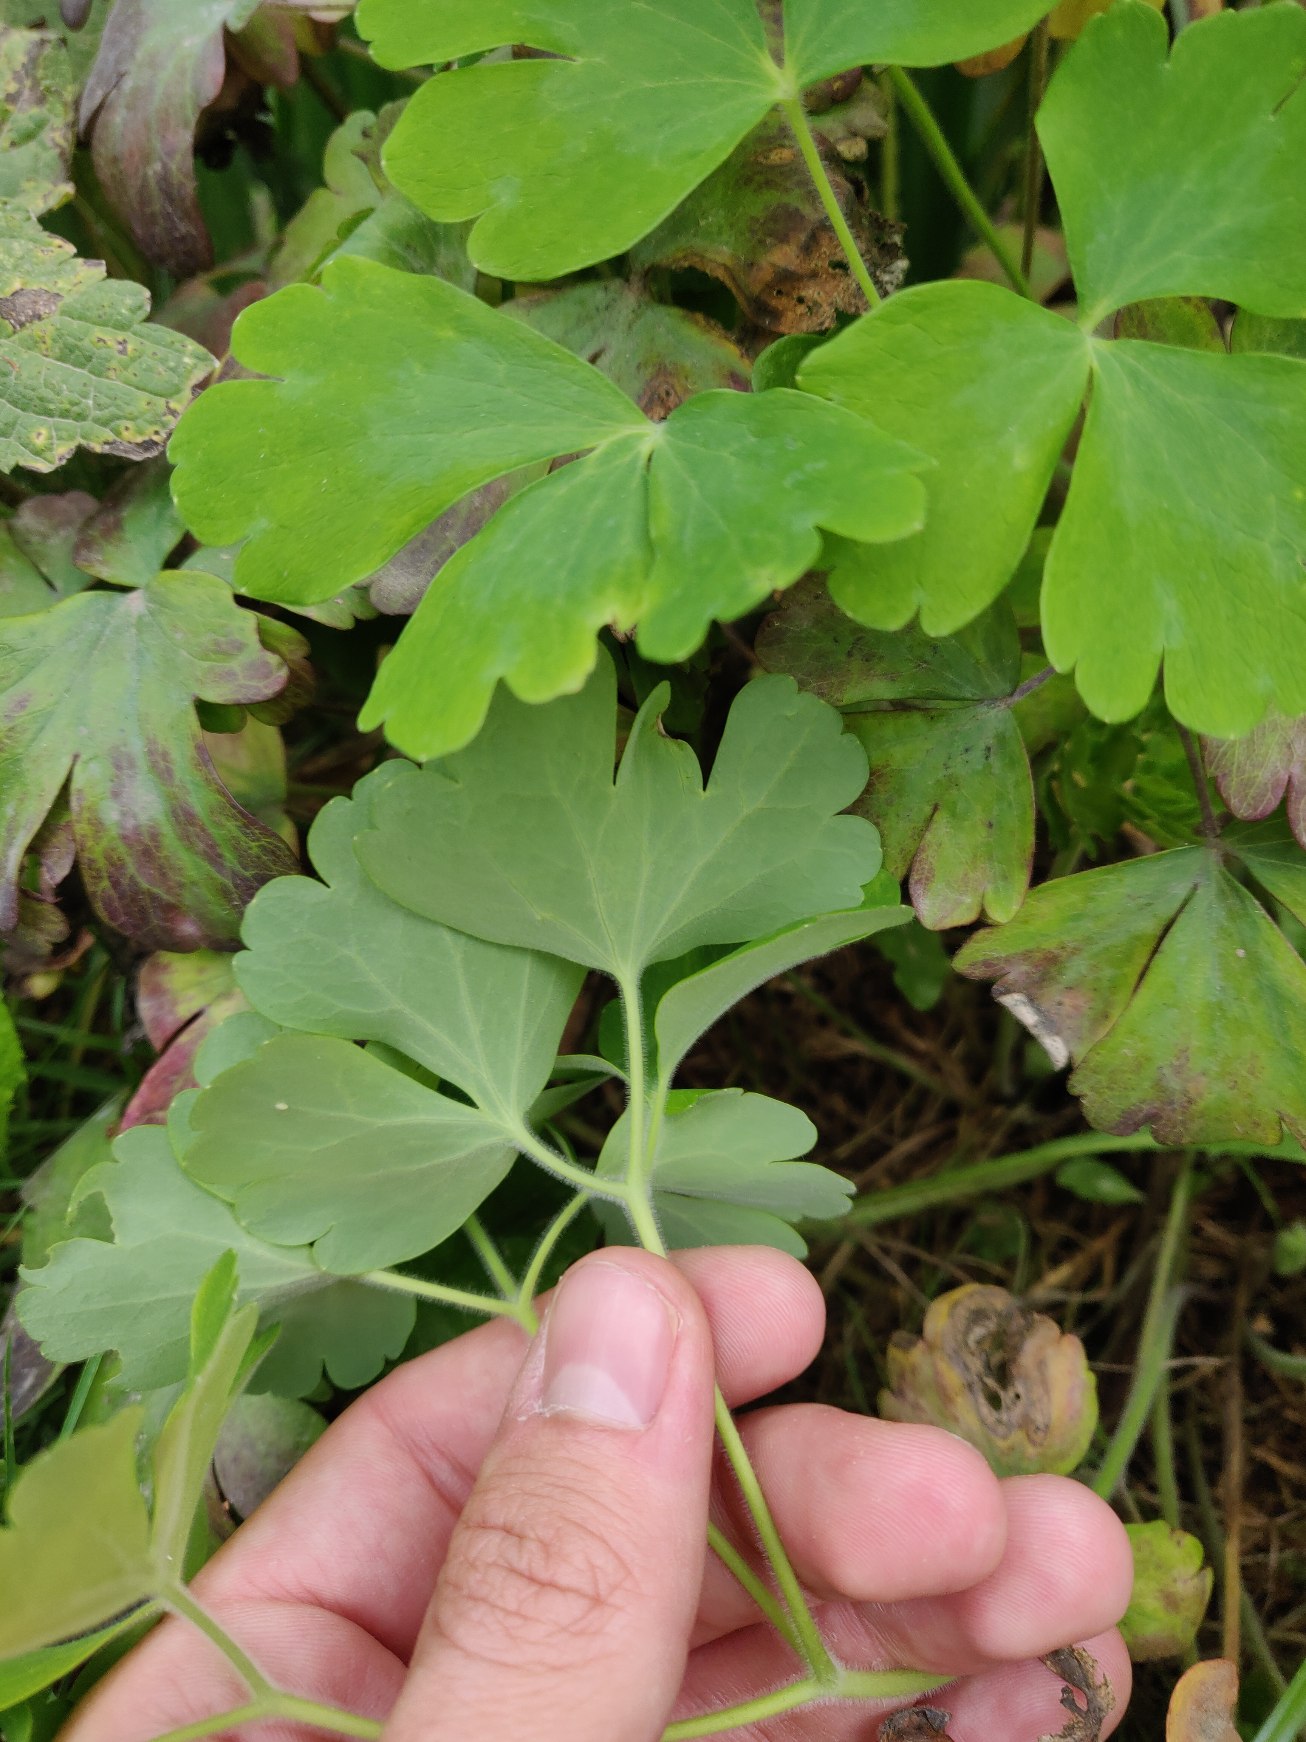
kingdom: Plantae
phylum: Tracheophyta
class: Magnoliopsida
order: Ranunculales
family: Ranunculaceae
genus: Aquilegia
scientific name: Aquilegia vulgaris
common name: Akeleje
